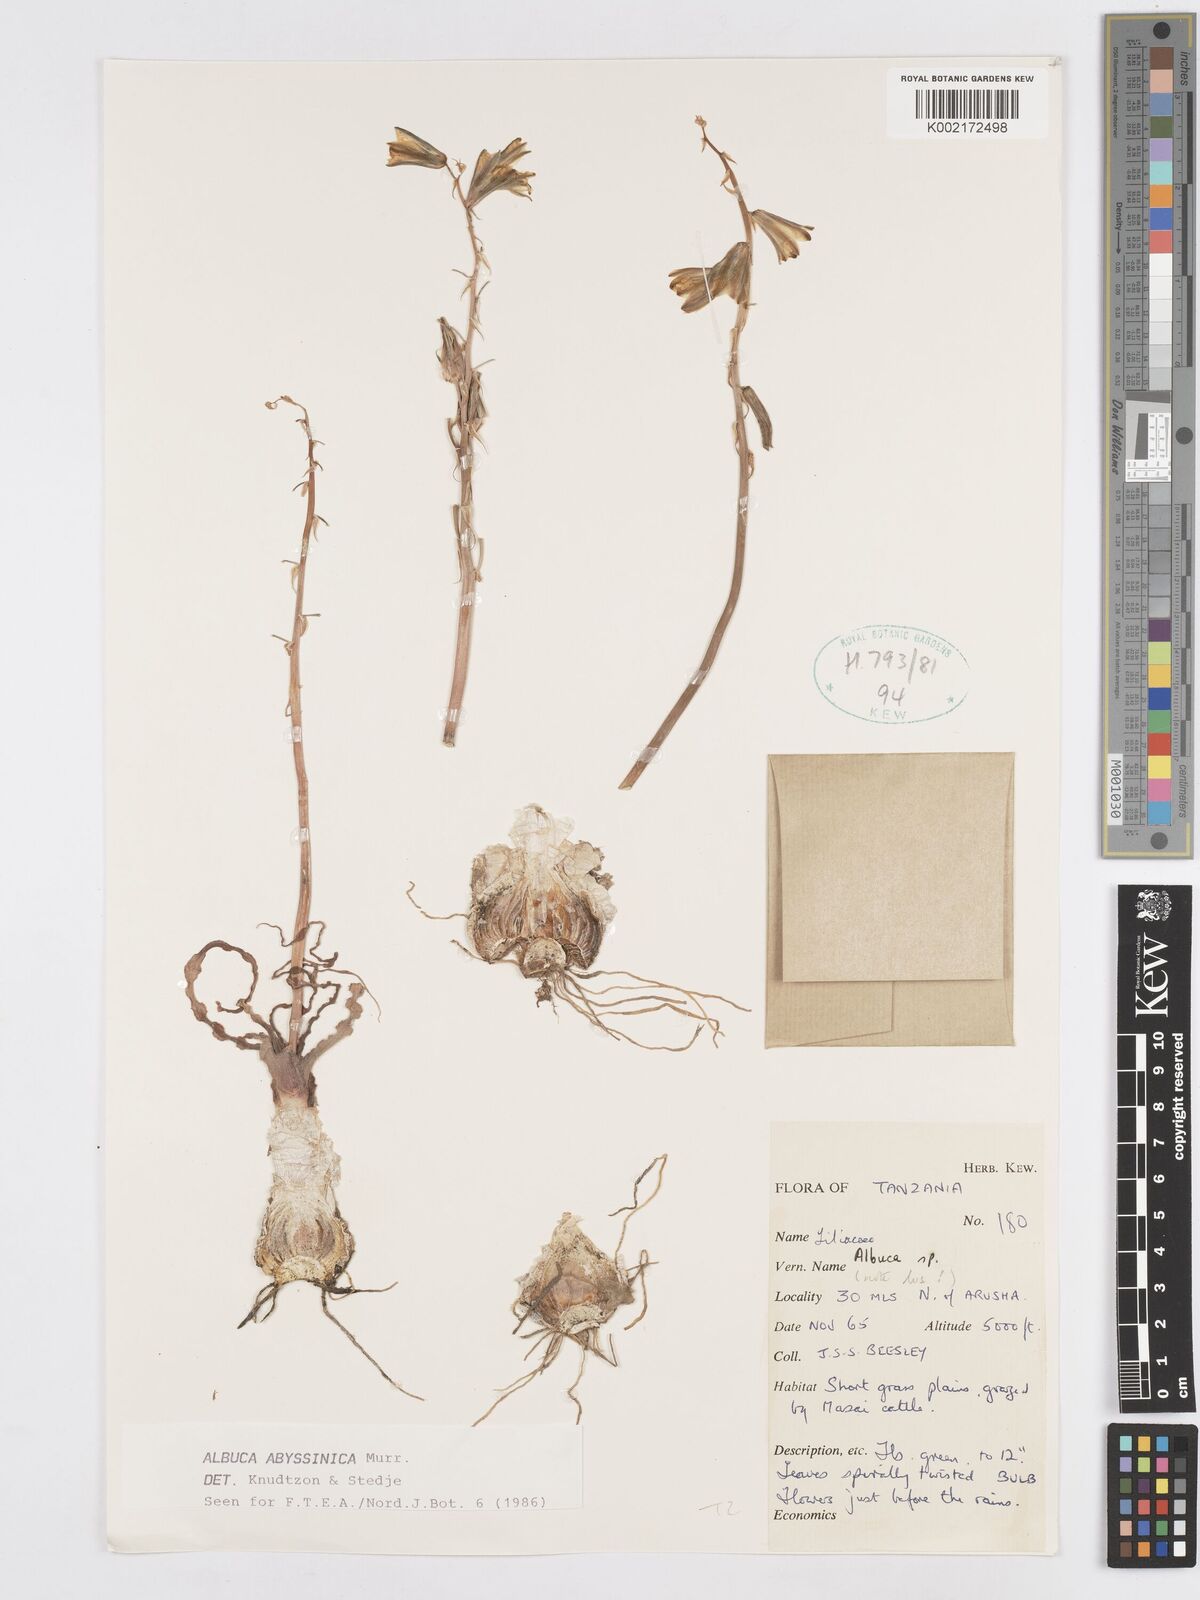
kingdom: Plantae
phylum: Tracheophyta
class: Liliopsida
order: Asparagales
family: Asparagaceae
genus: Albuca
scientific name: Albuca abyssinica
